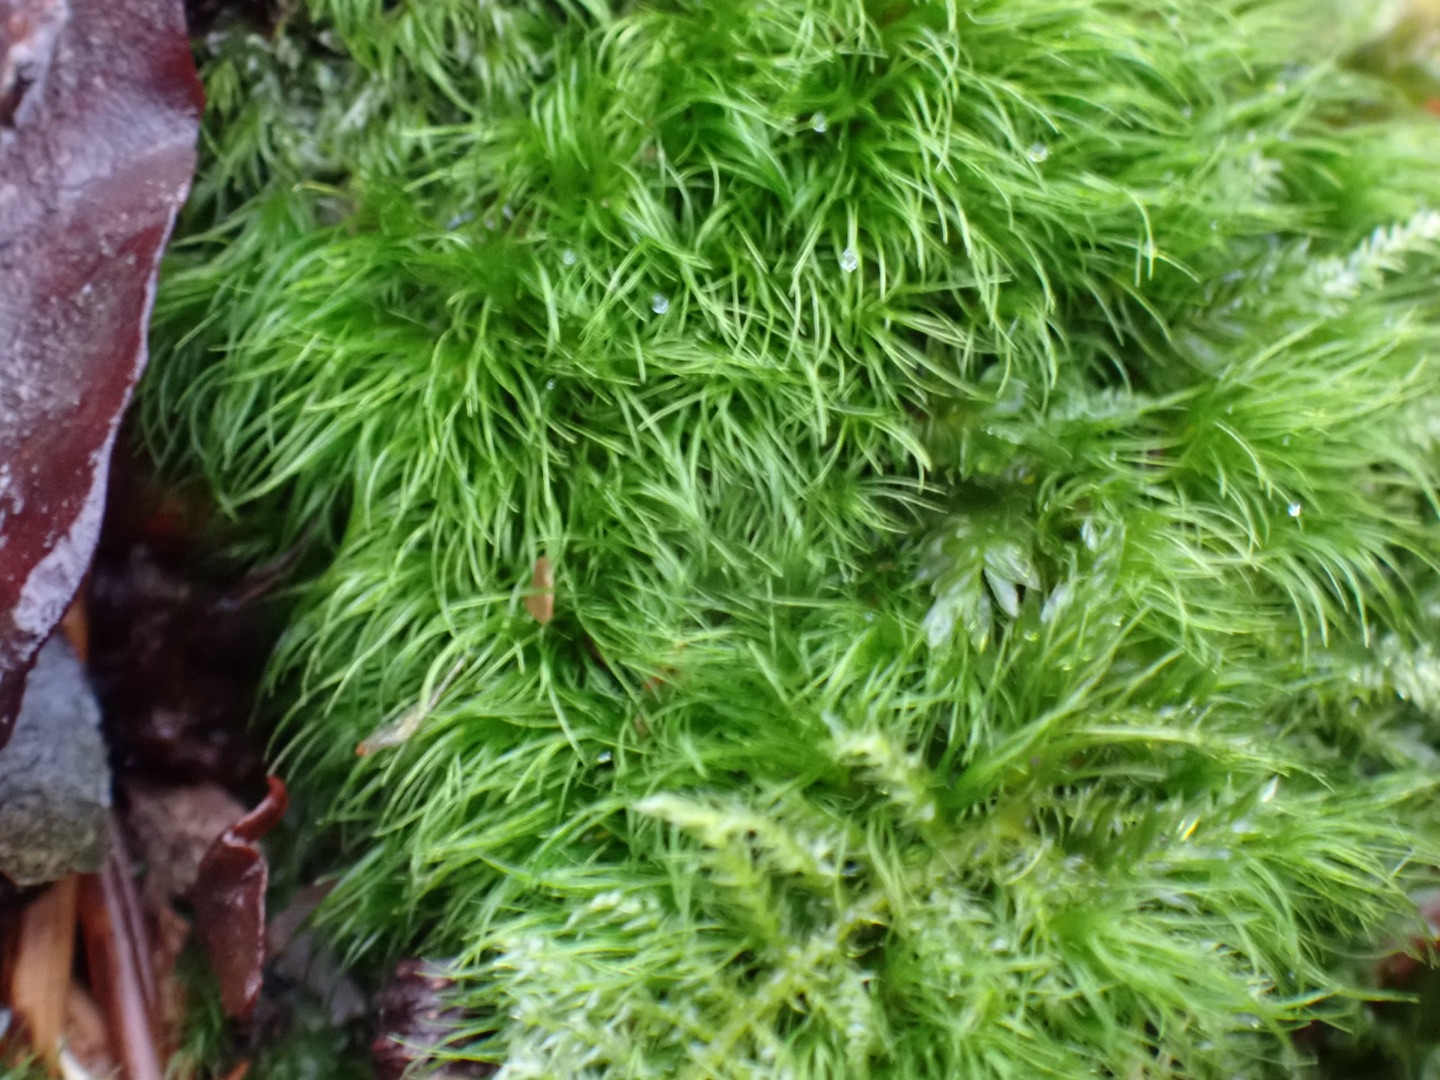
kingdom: Plantae
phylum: Bryophyta
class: Bryopsida
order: Dicranales
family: Dicranellaceae
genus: Dicranella
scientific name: Dicranella heteromalla
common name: Almindelig fløjlsmos
